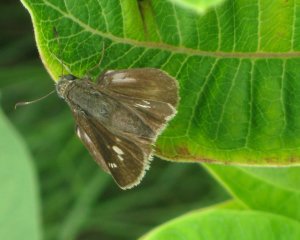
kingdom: Animalia
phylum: Arthropoda
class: Insecta
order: Lepidoptera
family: Hesperiidae
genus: Vernia
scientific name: Vernia verna
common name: Little Glassywing
